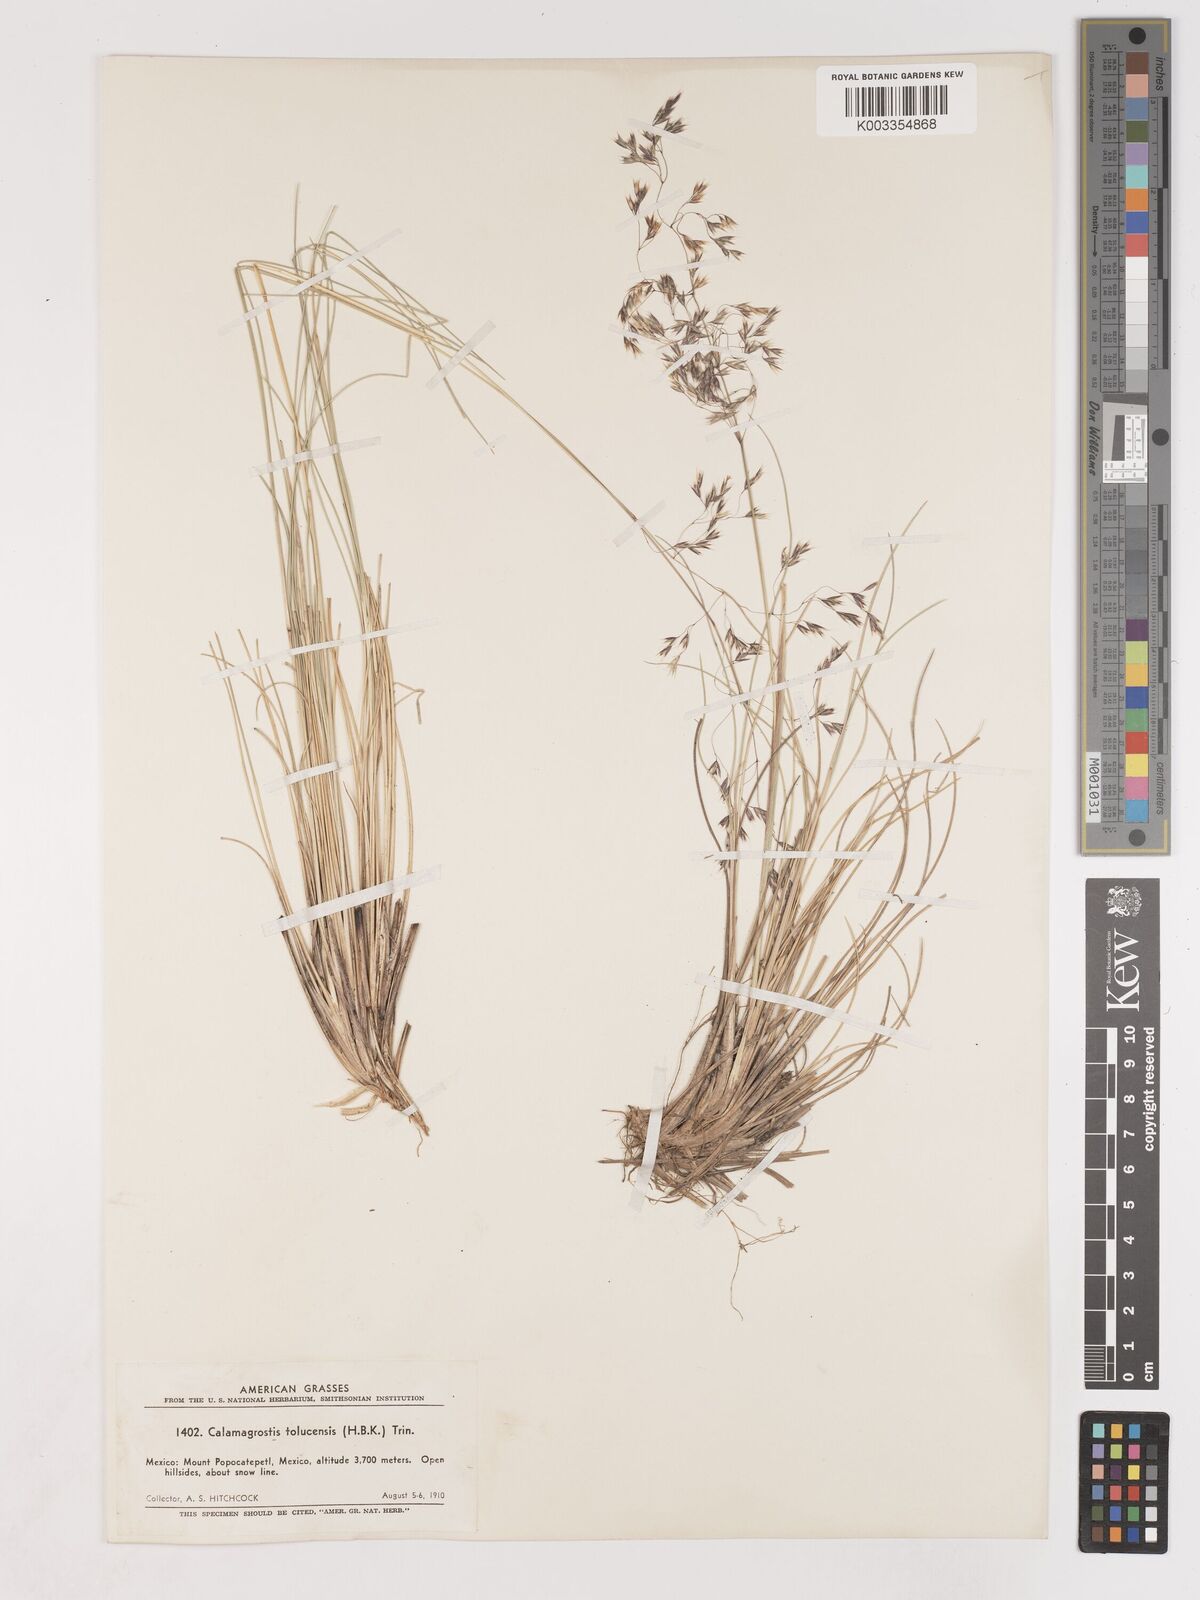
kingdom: Plantae
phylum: Tracheophyta
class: Liliopsida
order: Poales
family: Poaceae
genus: Peyritschia
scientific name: Peyritschia tolucensis
